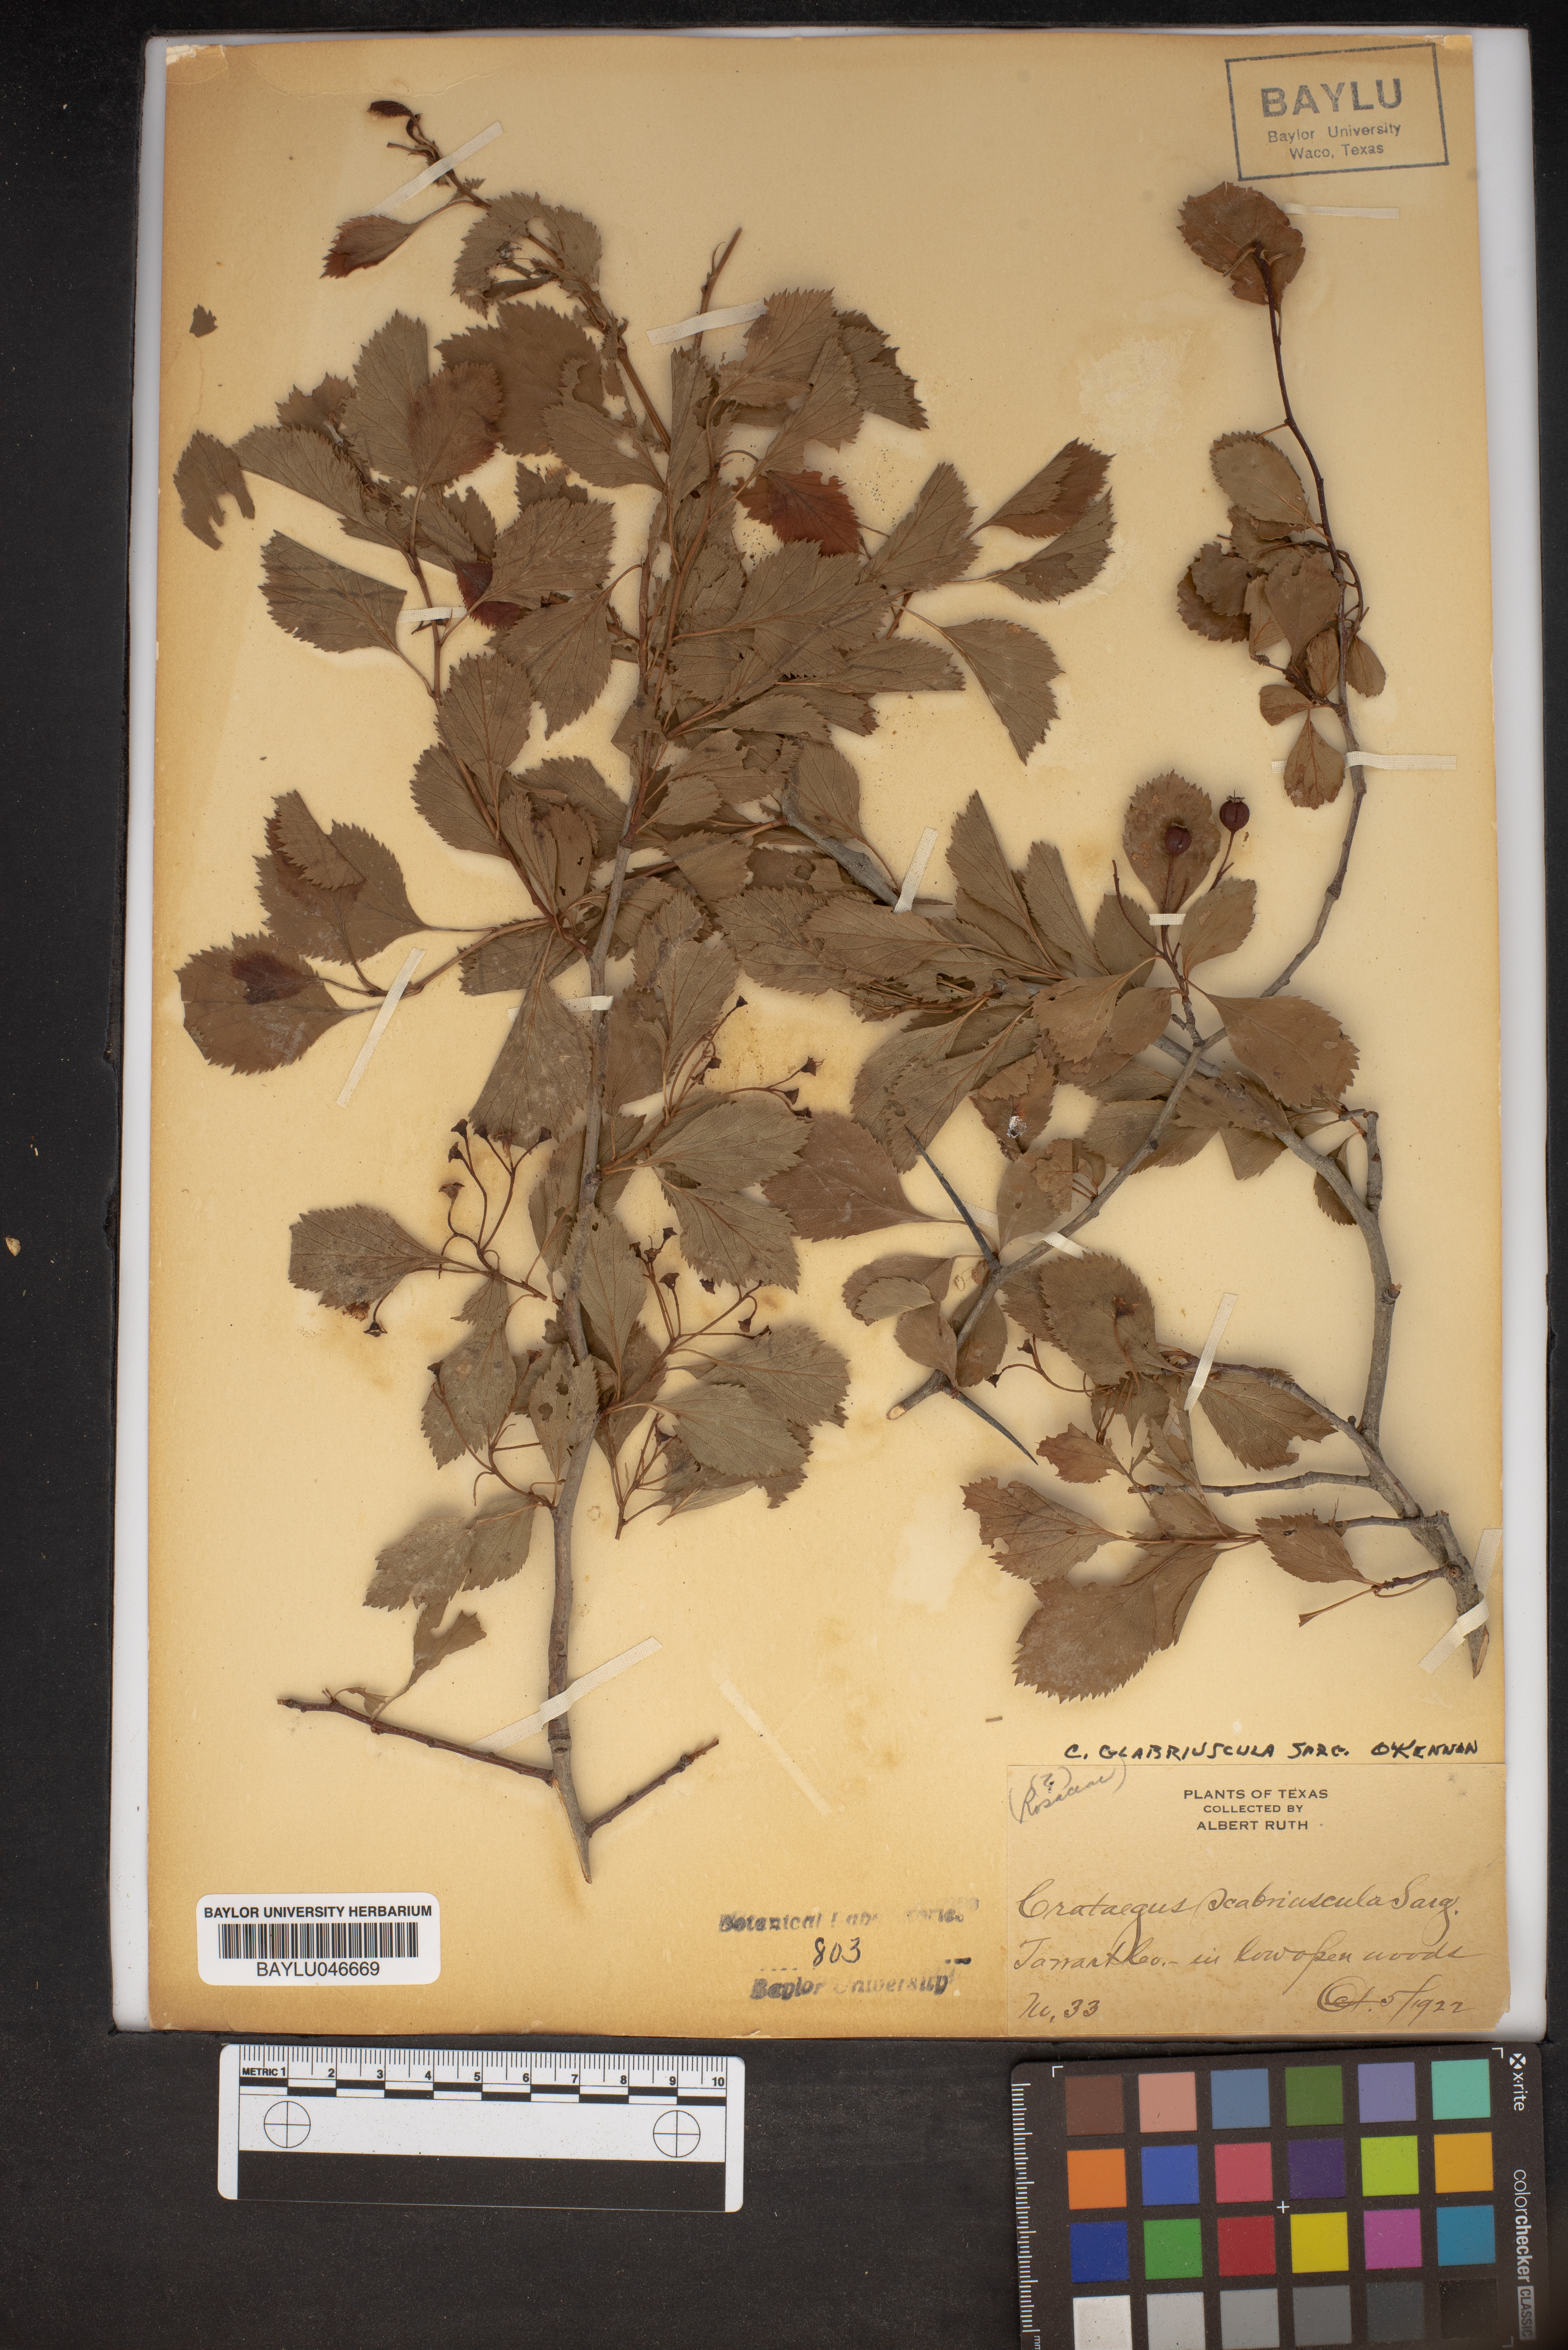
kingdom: Plantae
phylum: Tracheophyta
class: Magnoliopsida
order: Rosales
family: Rosaceae
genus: Crataegus
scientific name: Crataegus scabriuscula
